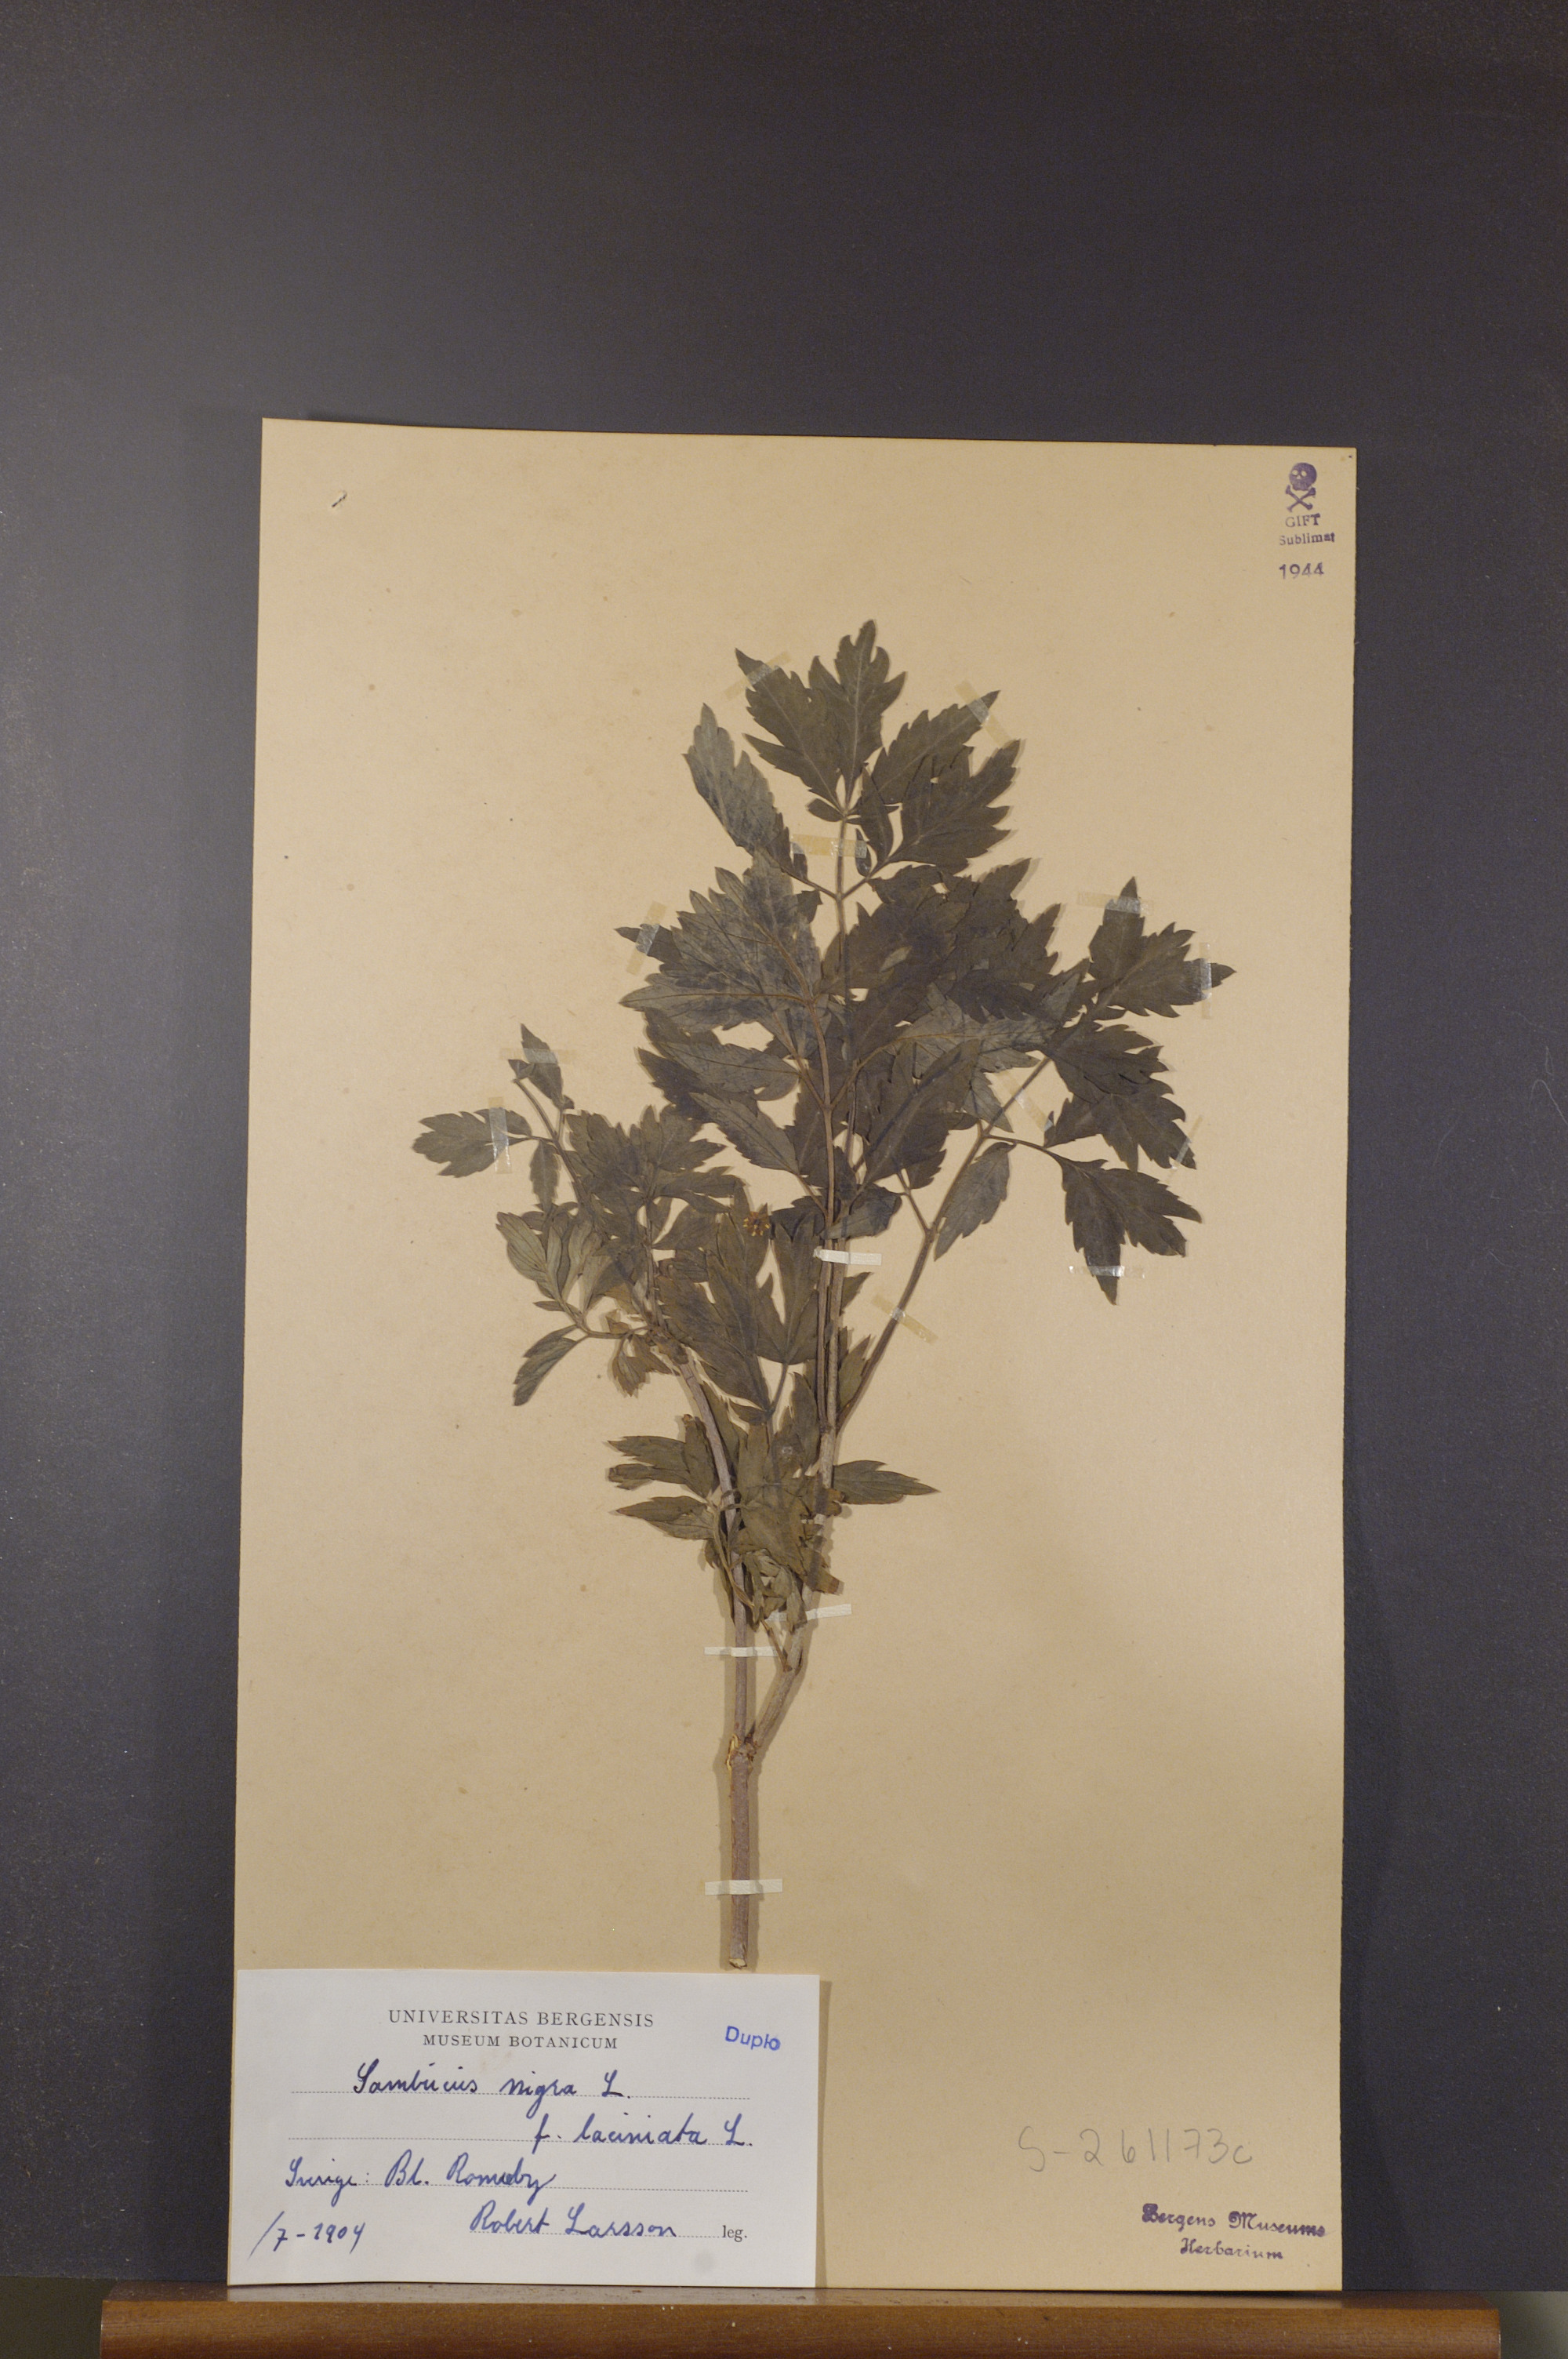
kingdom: Plantae
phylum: Tracheophyta
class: Magnoliopsida
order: Dipsacales
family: Viburnaceae
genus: Sambucus
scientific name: Sambucus nigra
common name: Elder
